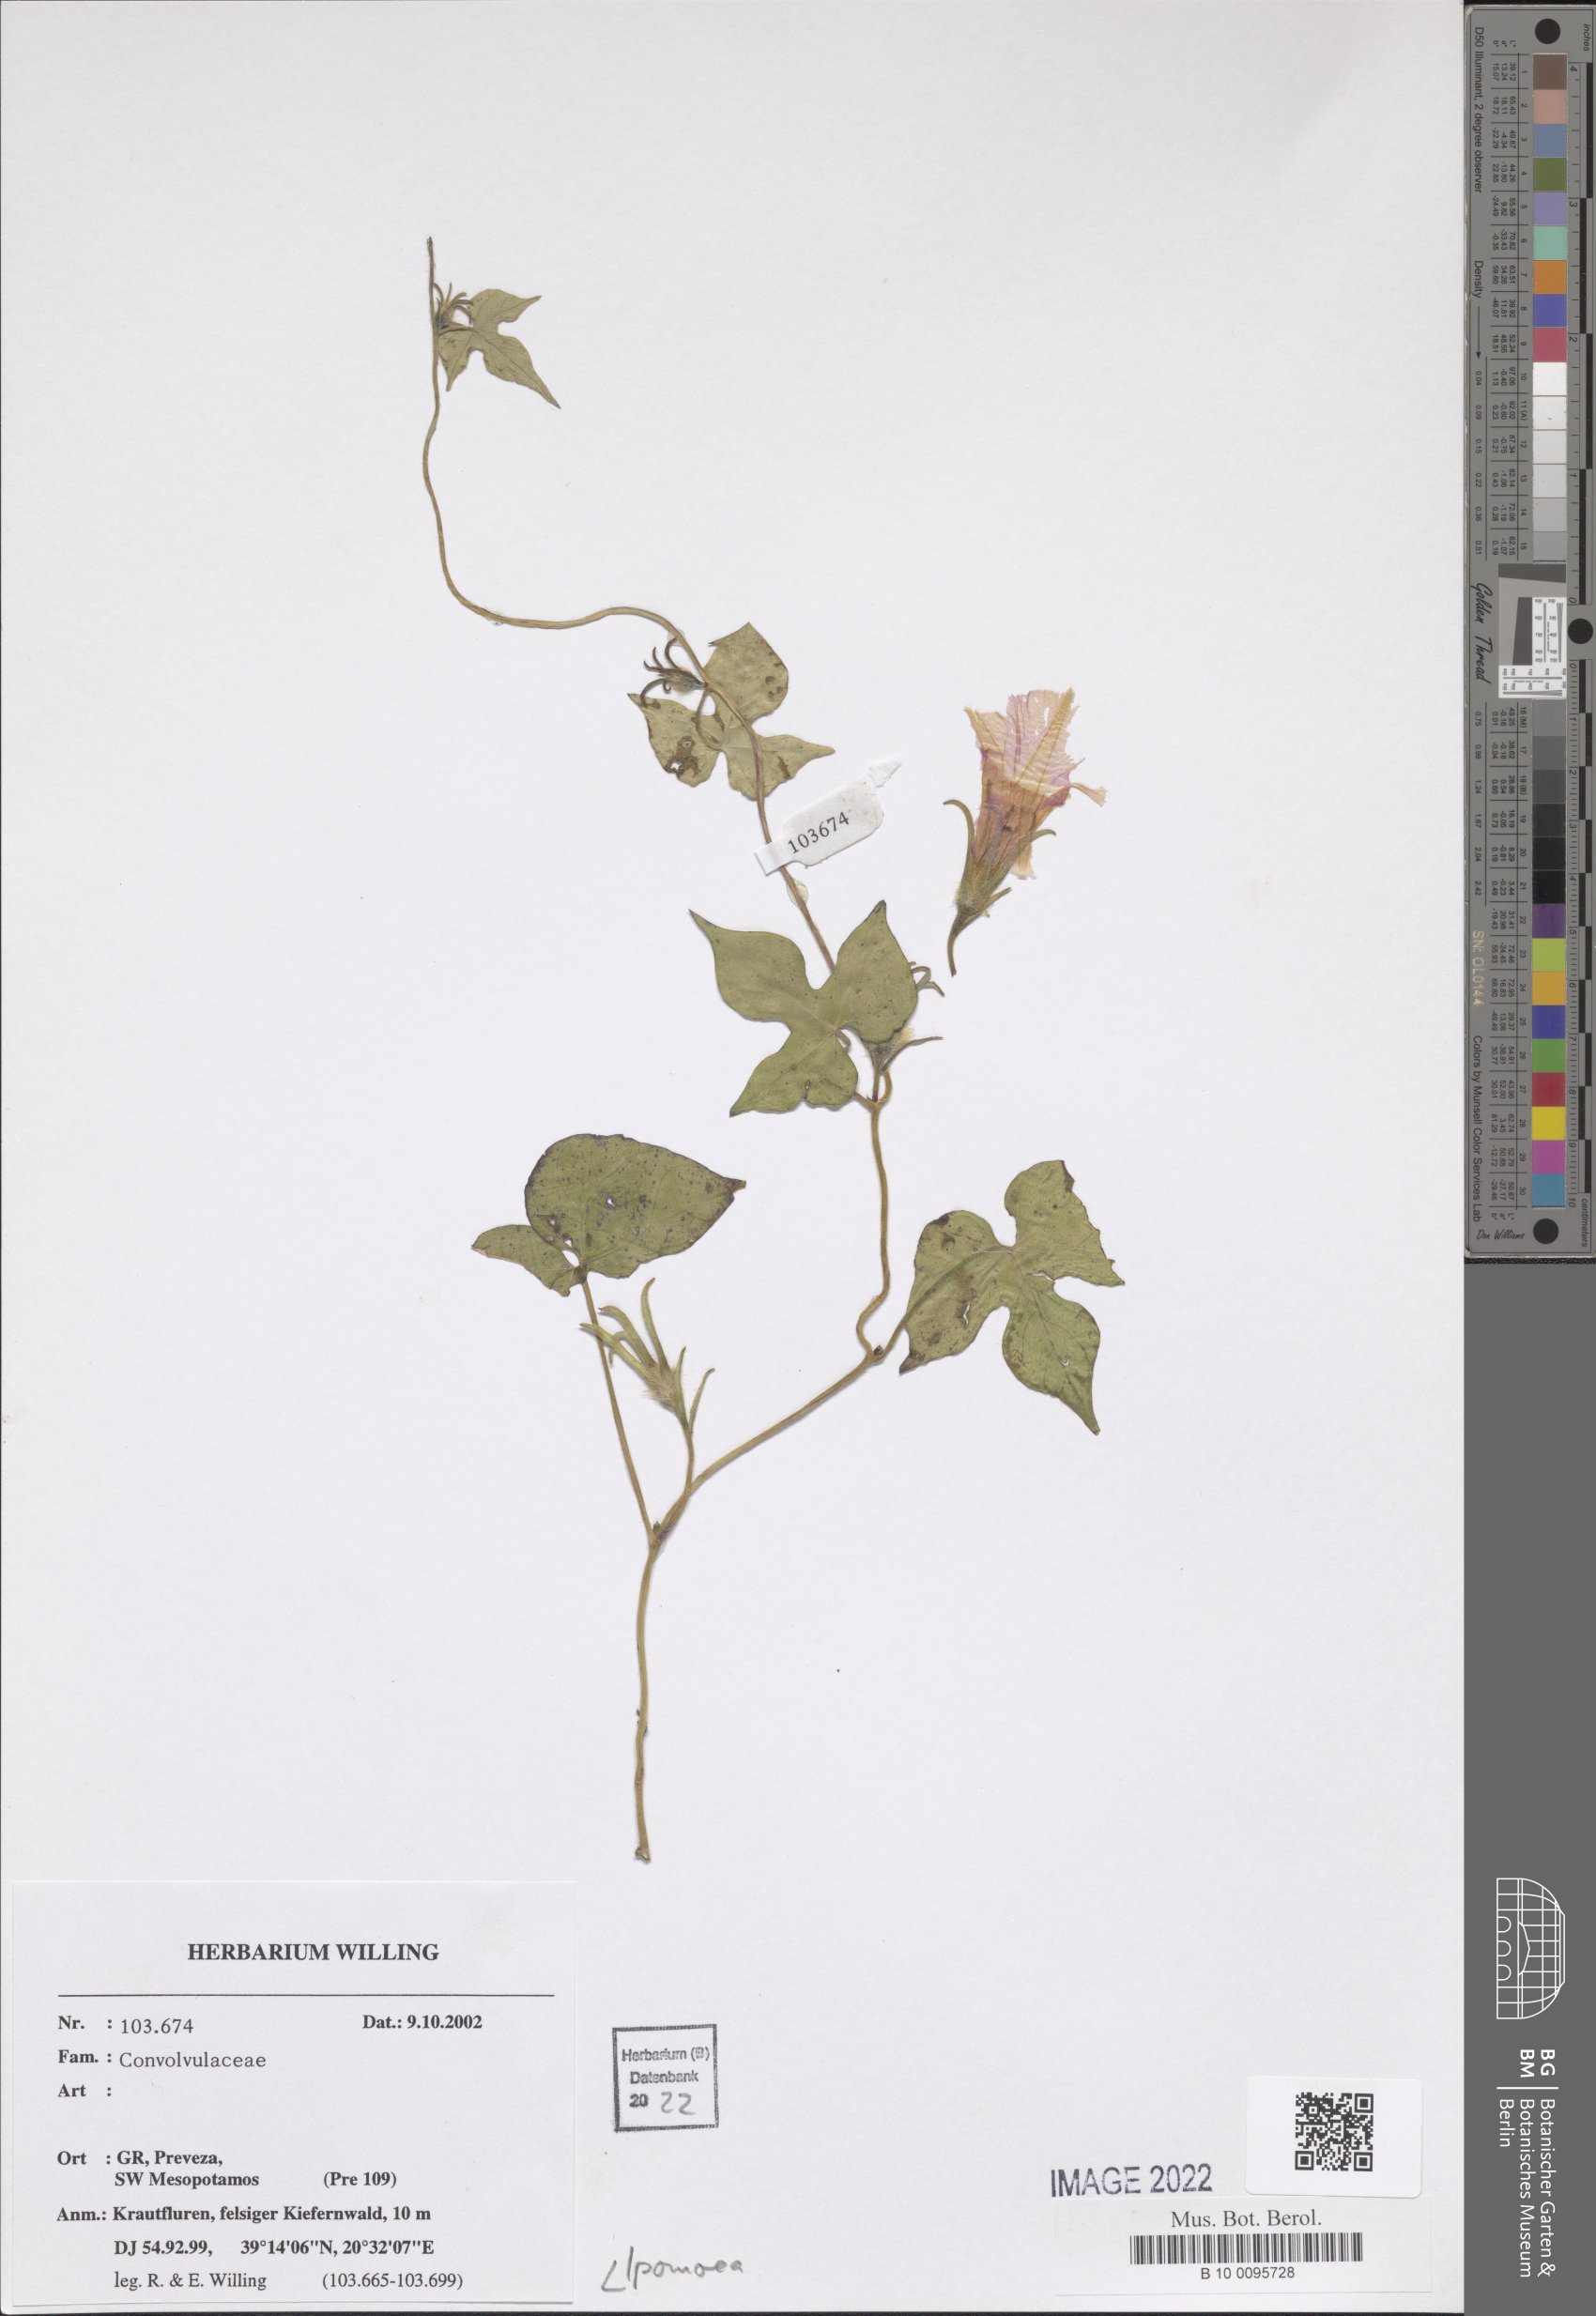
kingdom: Plantae
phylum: Tracheophyta
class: Magnoliopsida
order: Solanales
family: Convolvulaceae
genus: Ipomoea
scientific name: Ipomoea
